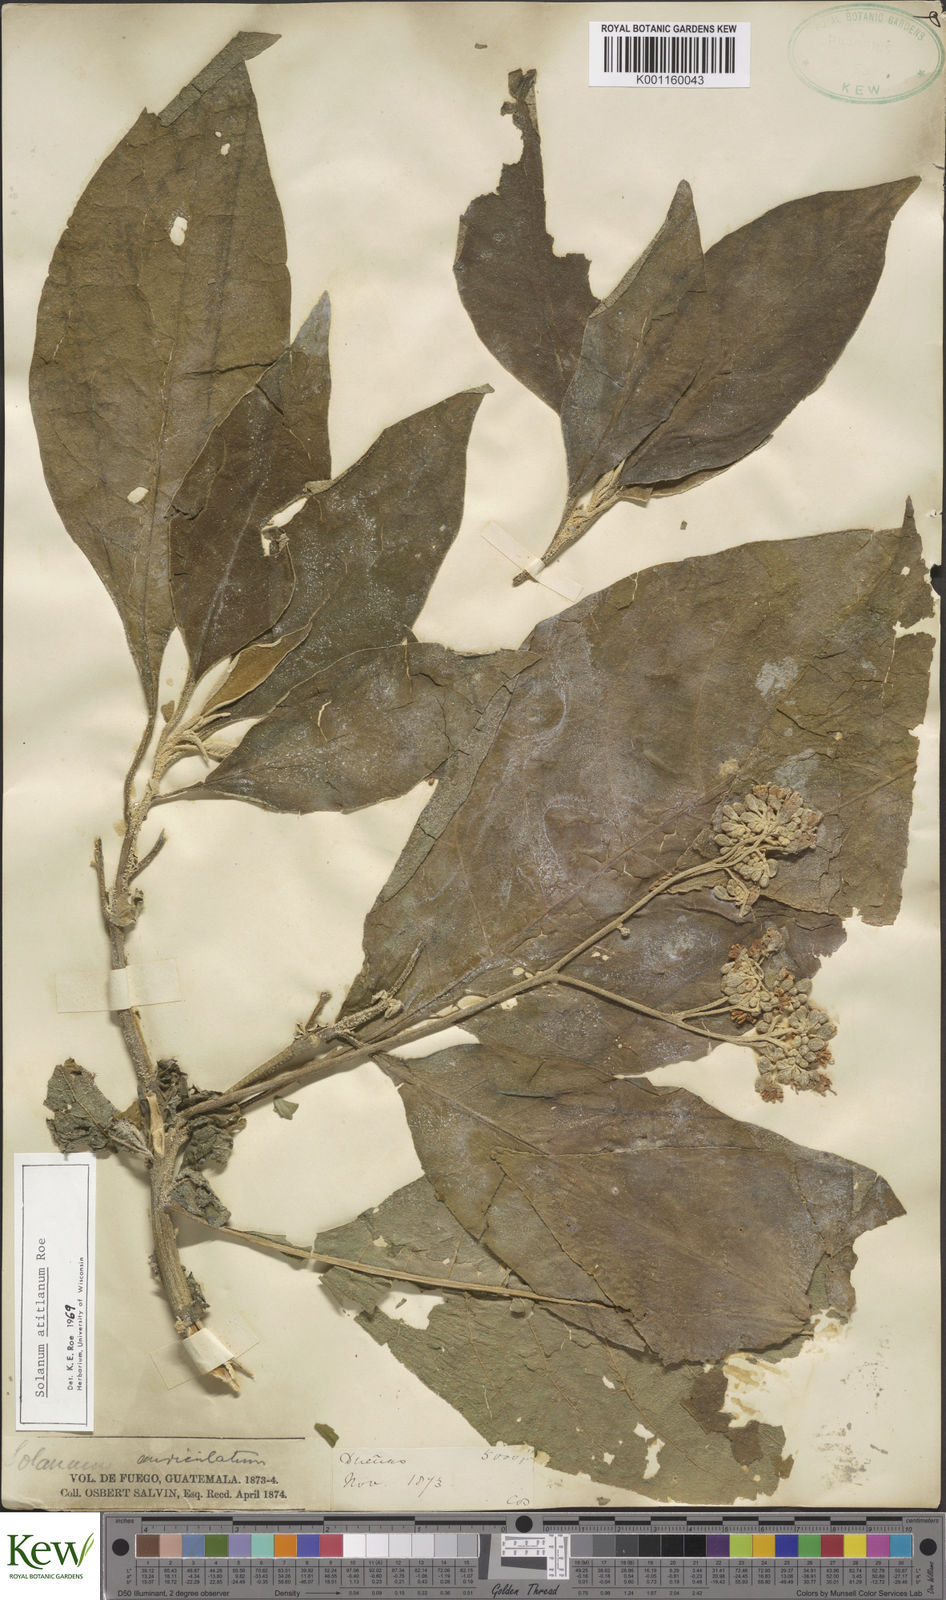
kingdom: Plantae
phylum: Tracheophyta
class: Magnoliopsida
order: Solanales
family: Solanaceae
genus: Solanum
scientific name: Solanum atitlanum
